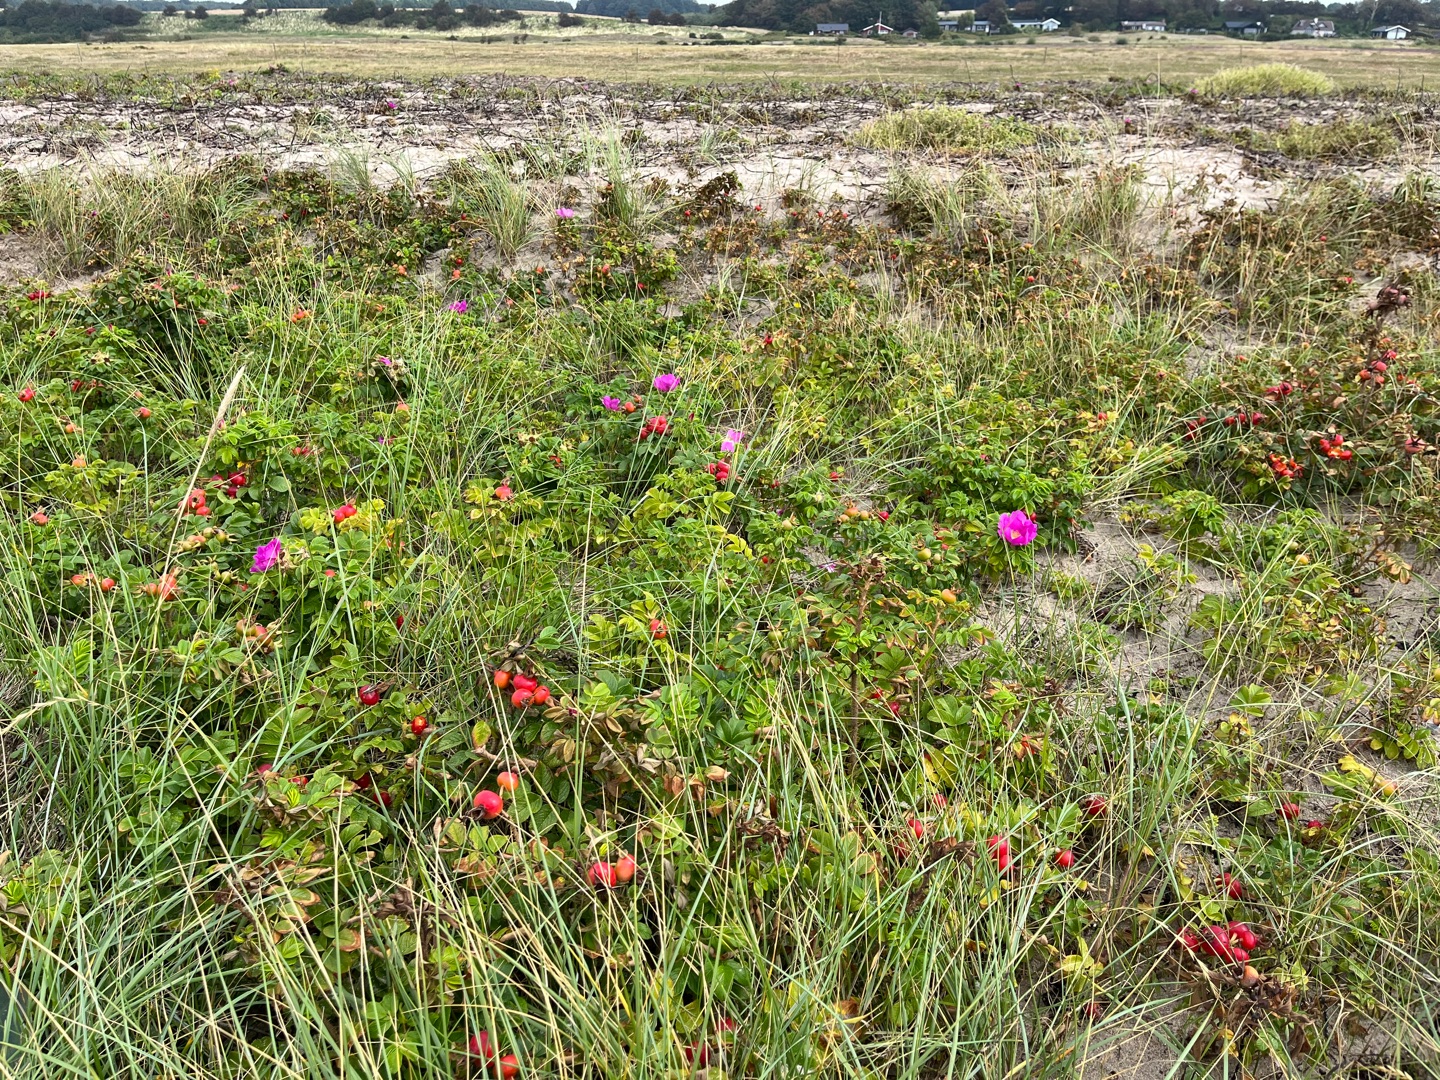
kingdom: Plantae
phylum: Tracheophyta
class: Magnoliopsida
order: Rosales
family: Rosaceae
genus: Rosa
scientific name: Rosa rugosa
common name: Rynket rose
